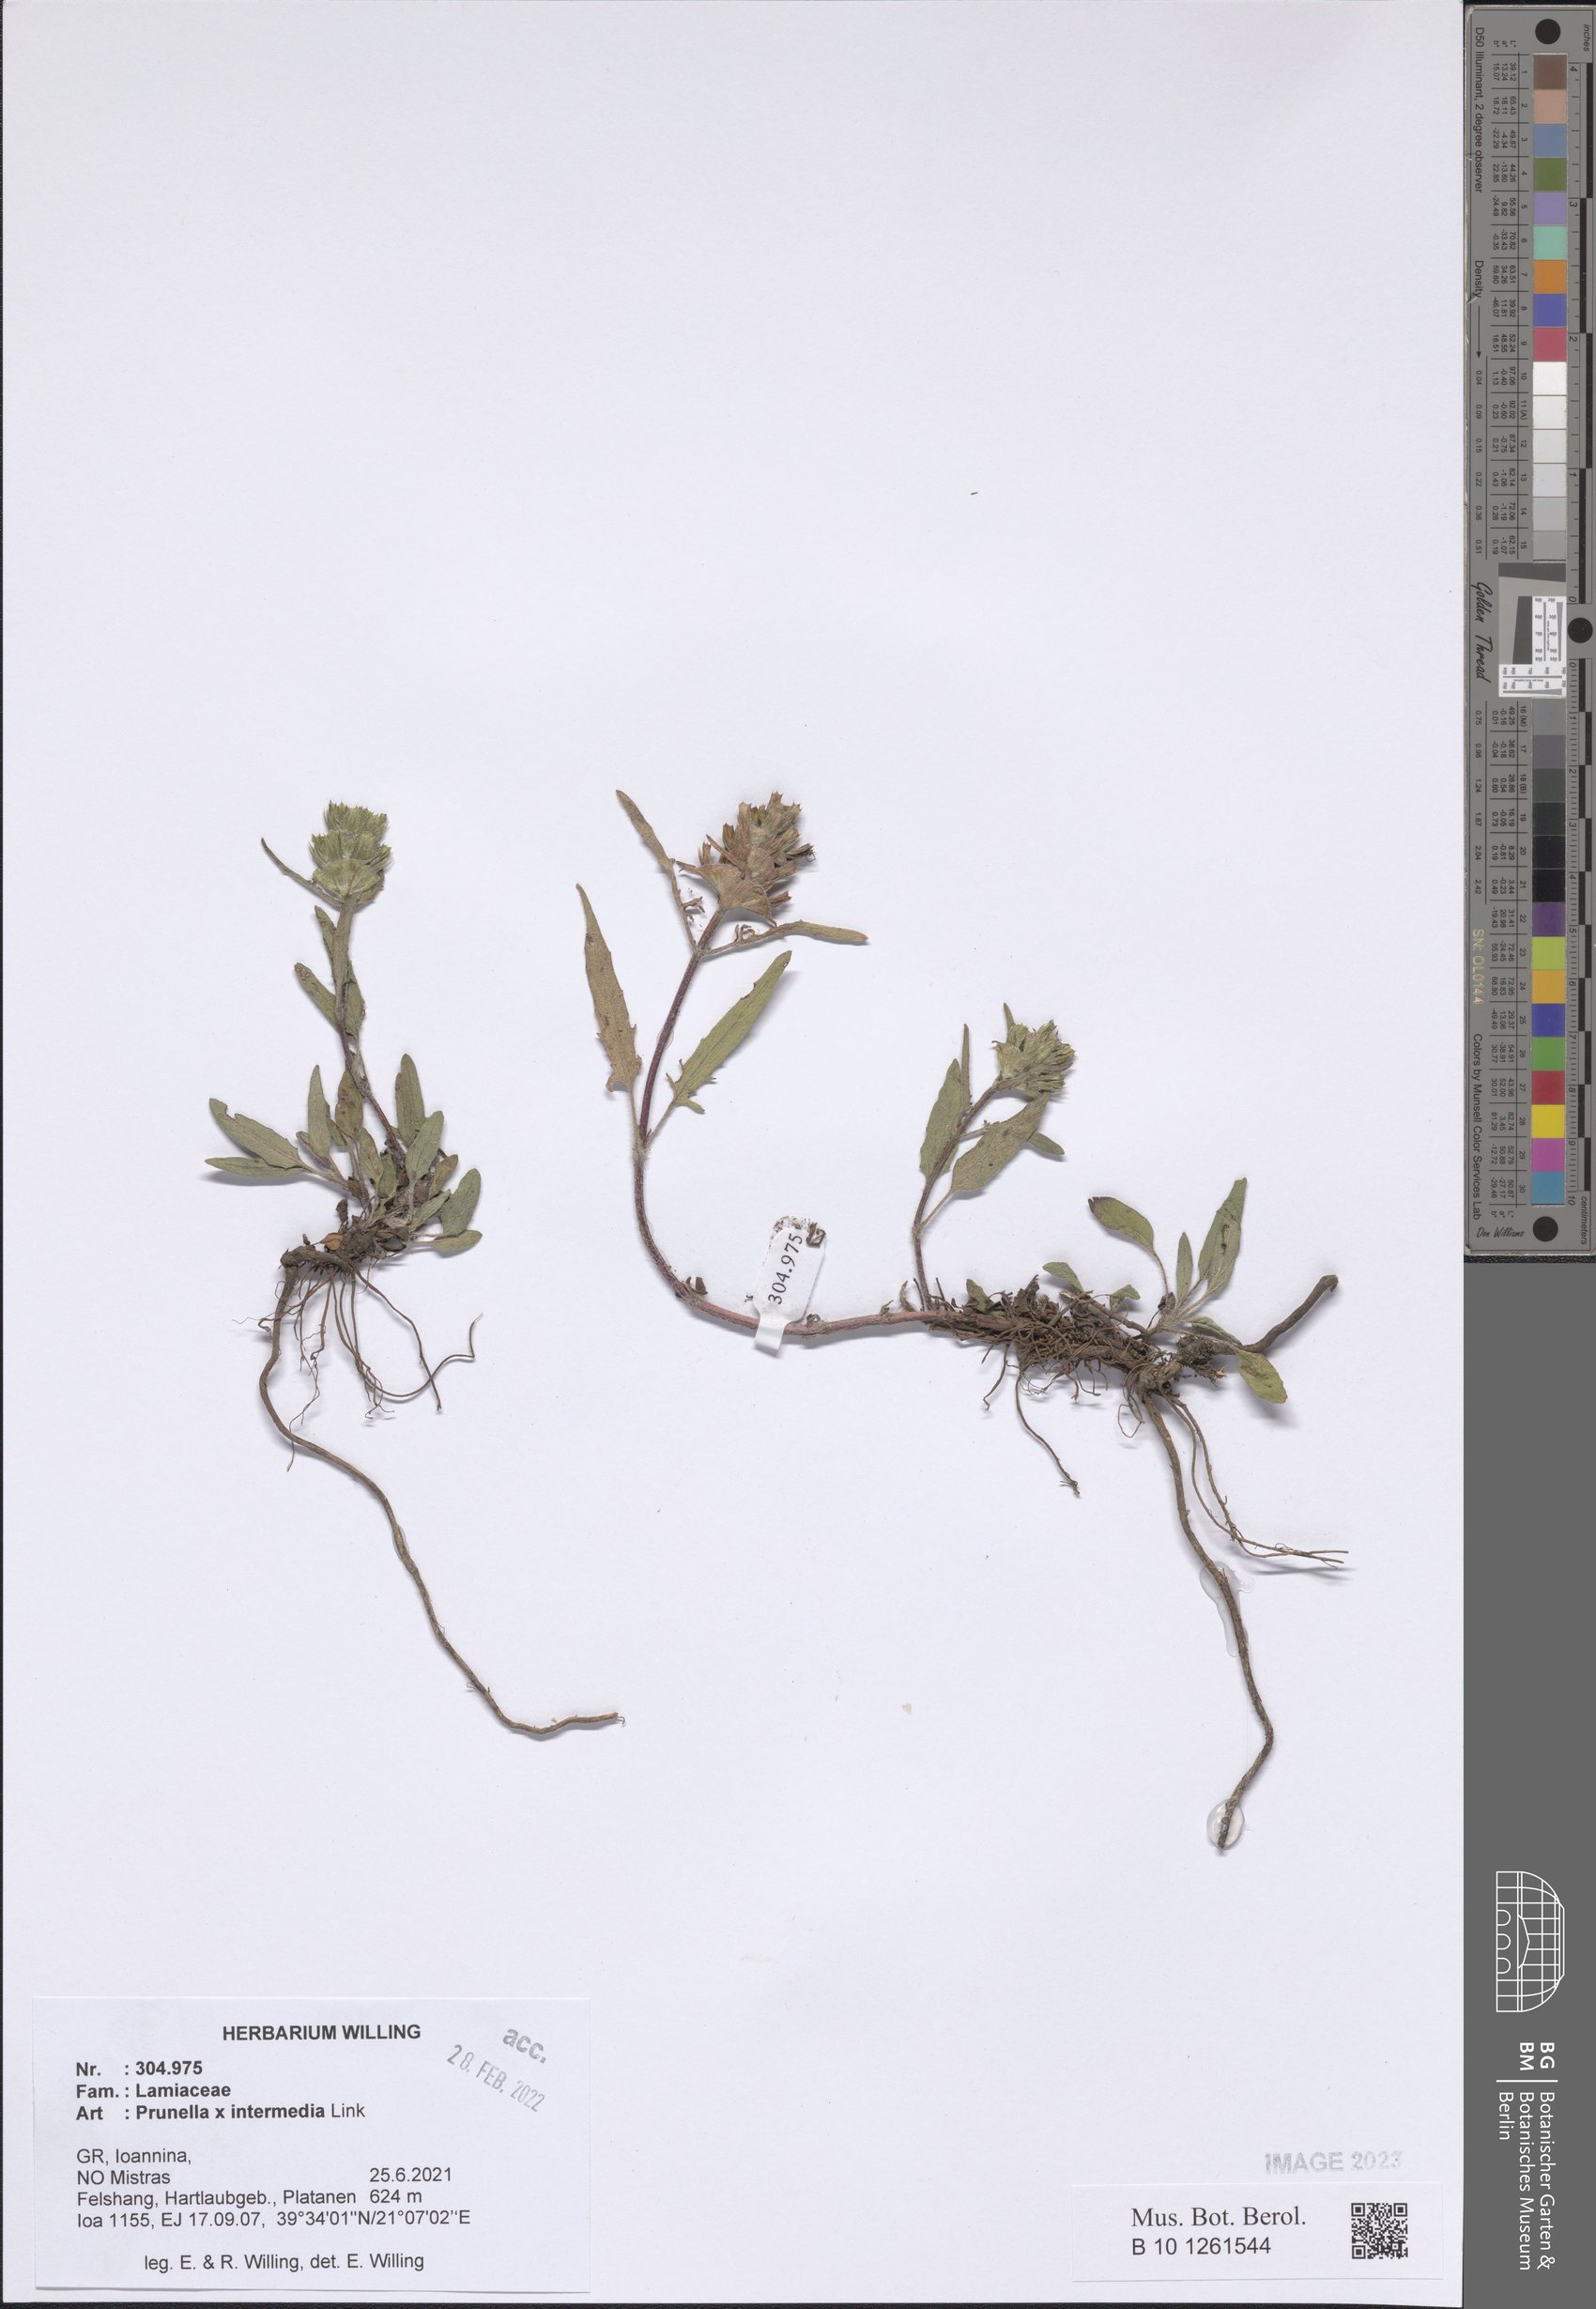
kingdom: Plantae
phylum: Tracheophyta
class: Magnoliopsida
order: Lamiales
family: Lamiaceae
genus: Prunella
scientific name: Prunella
